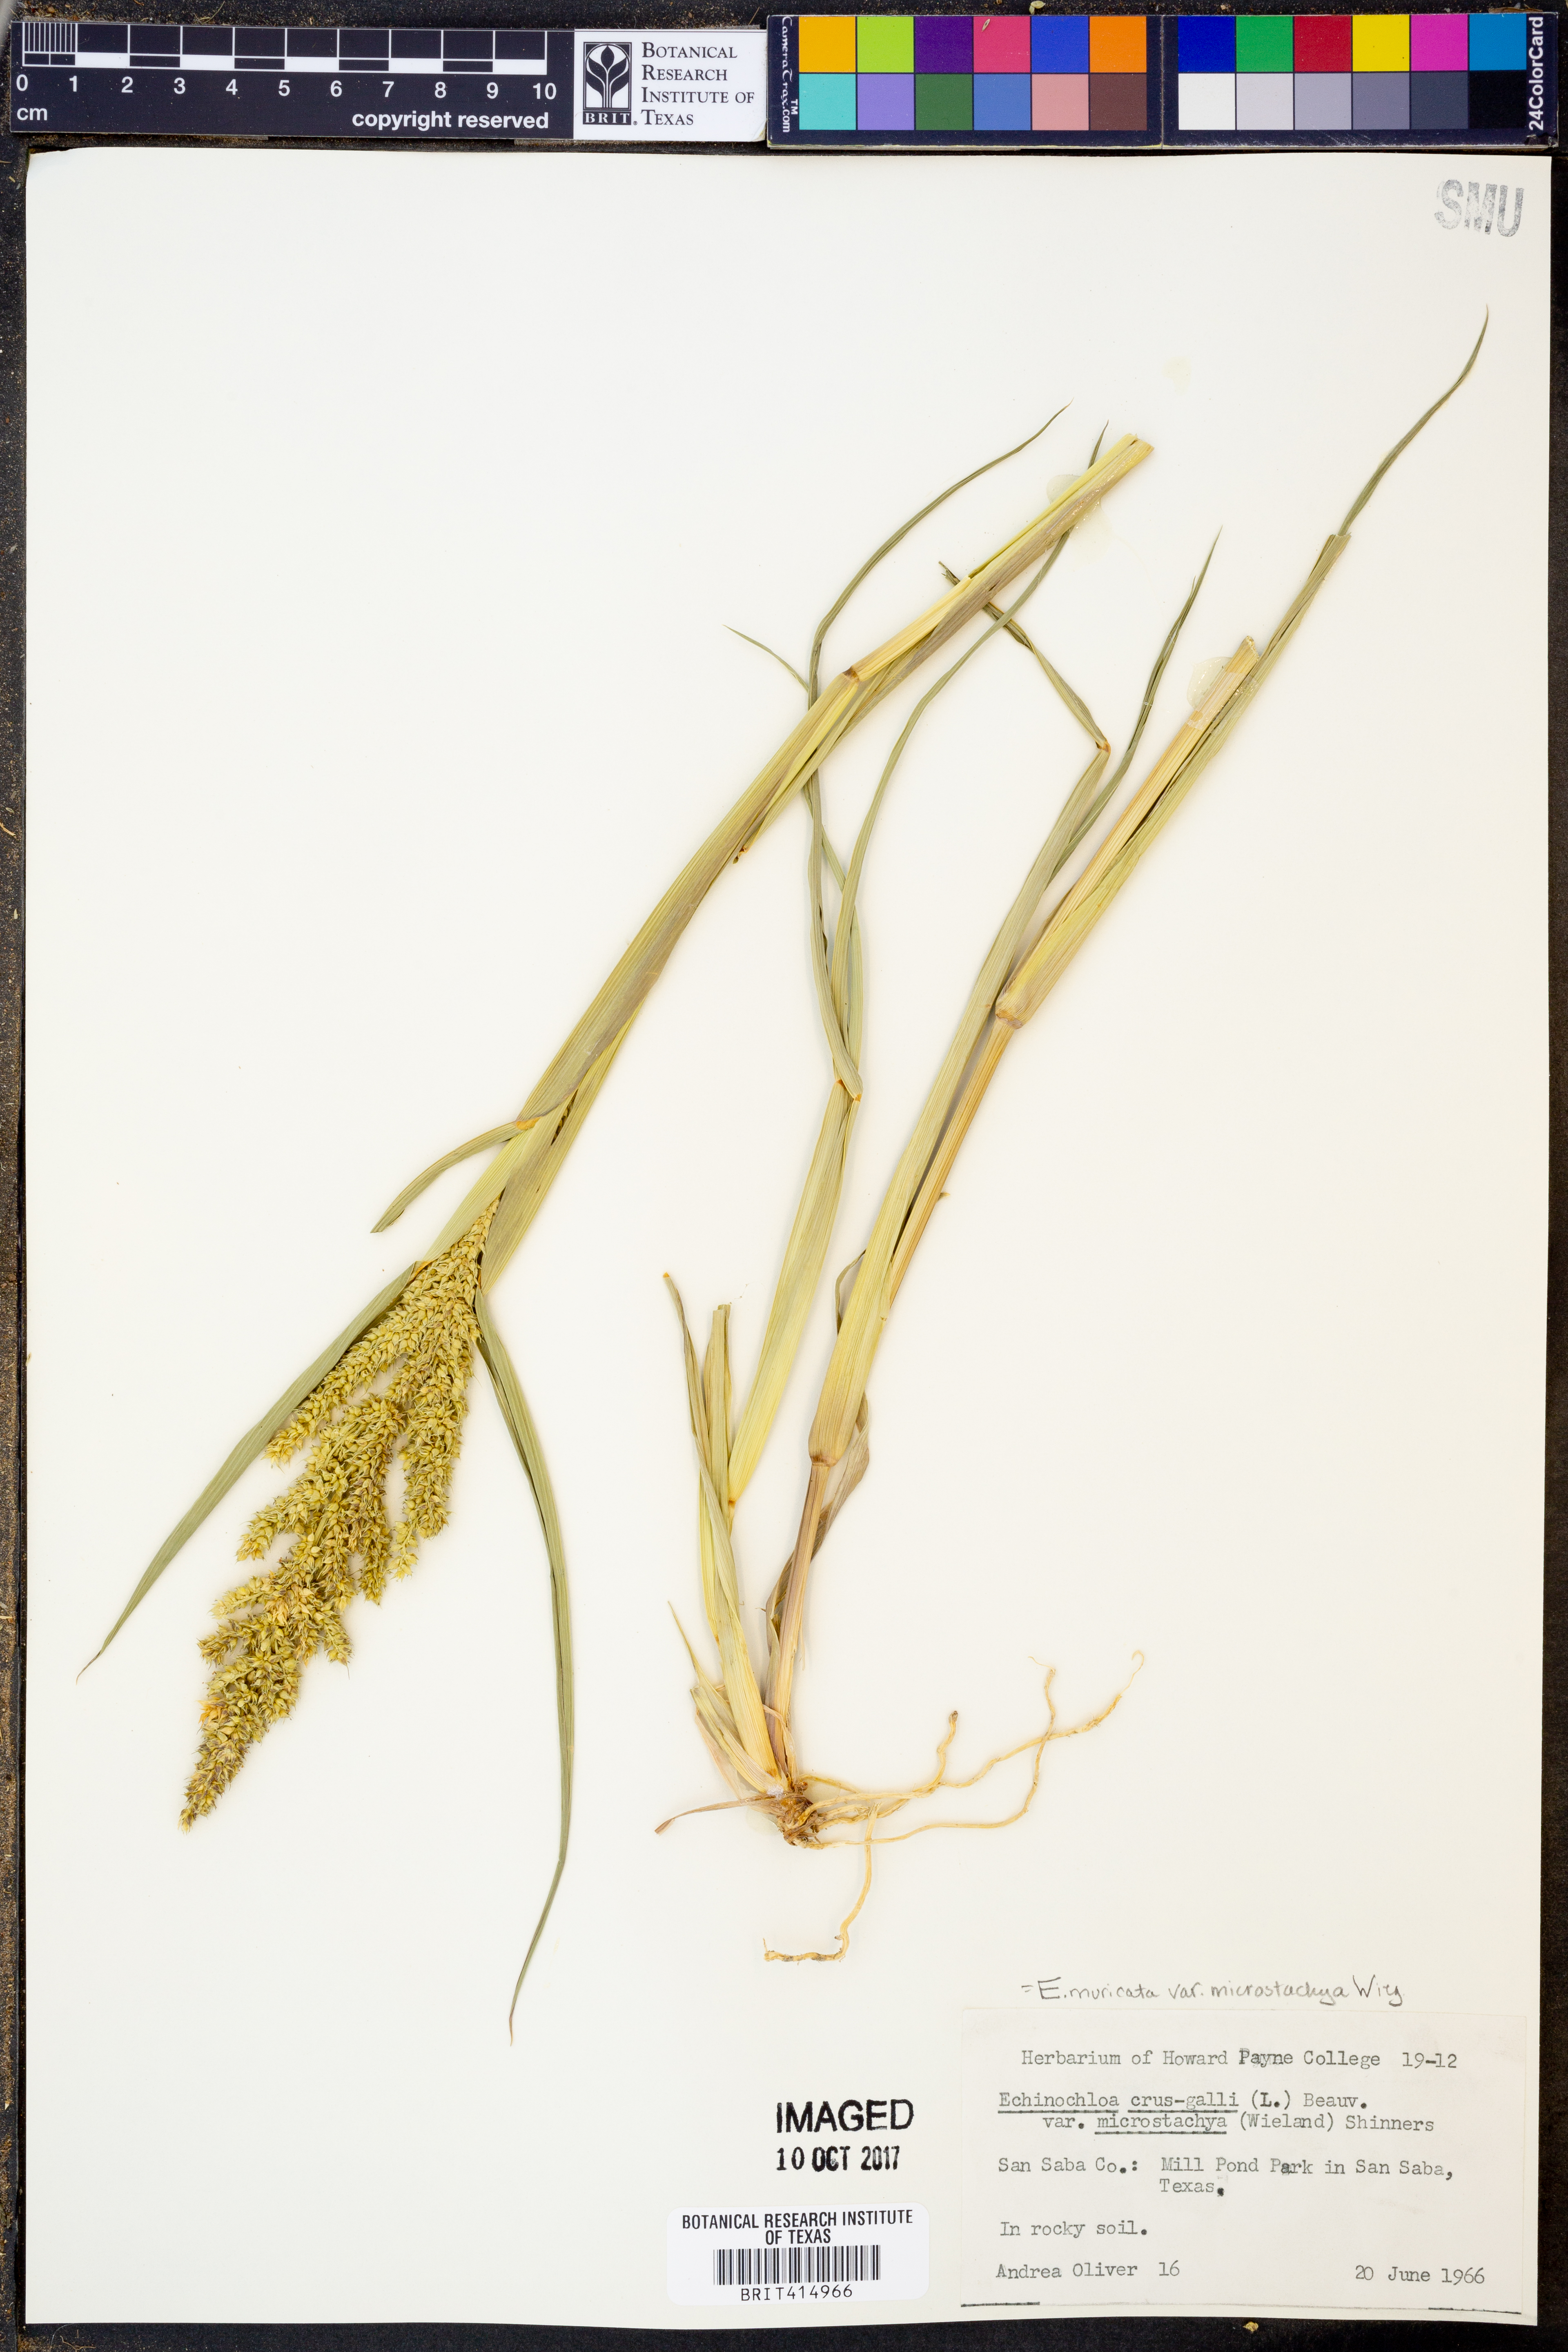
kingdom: Plantae
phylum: Tracheophyta
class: Liliopsida
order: Poales
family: Poaceae
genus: Echinochloa
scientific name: Echinochloa muricata
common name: American barnyard grass
